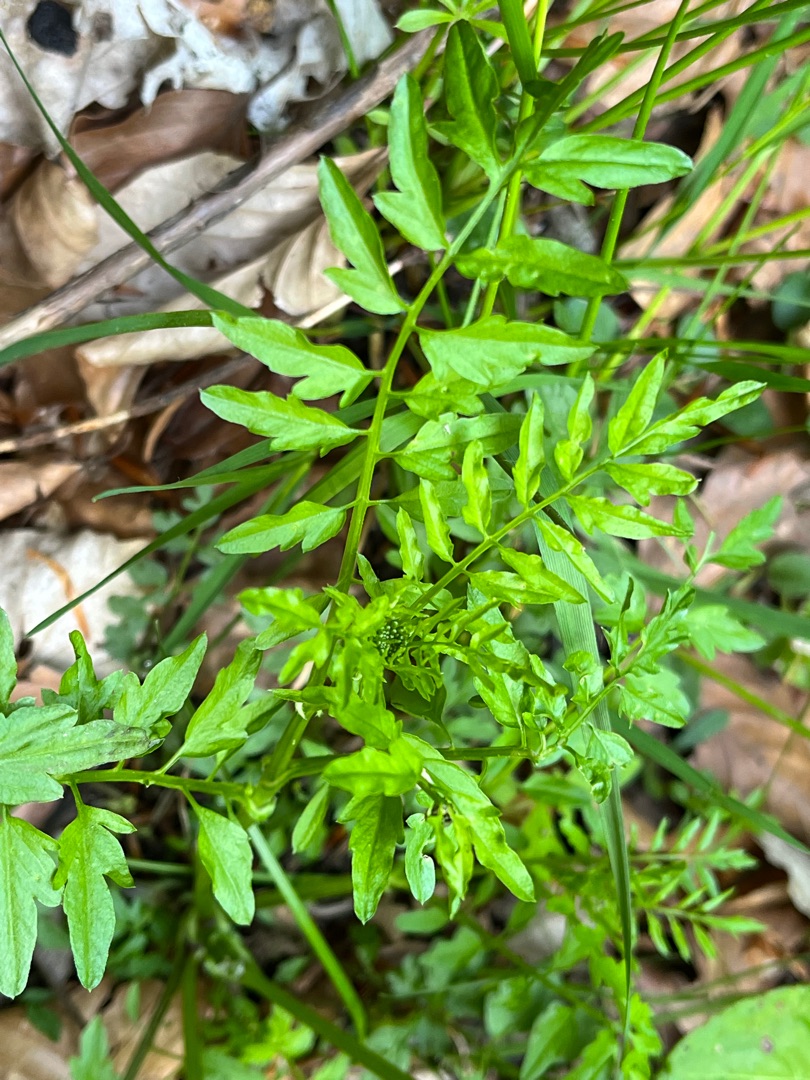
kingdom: Plantae
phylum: Tracheophyta
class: Magnoliopsida
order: Brassicales
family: Brassicaceae
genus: Cardamine
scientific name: Cardamine impatiens
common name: Kronløs springklap
